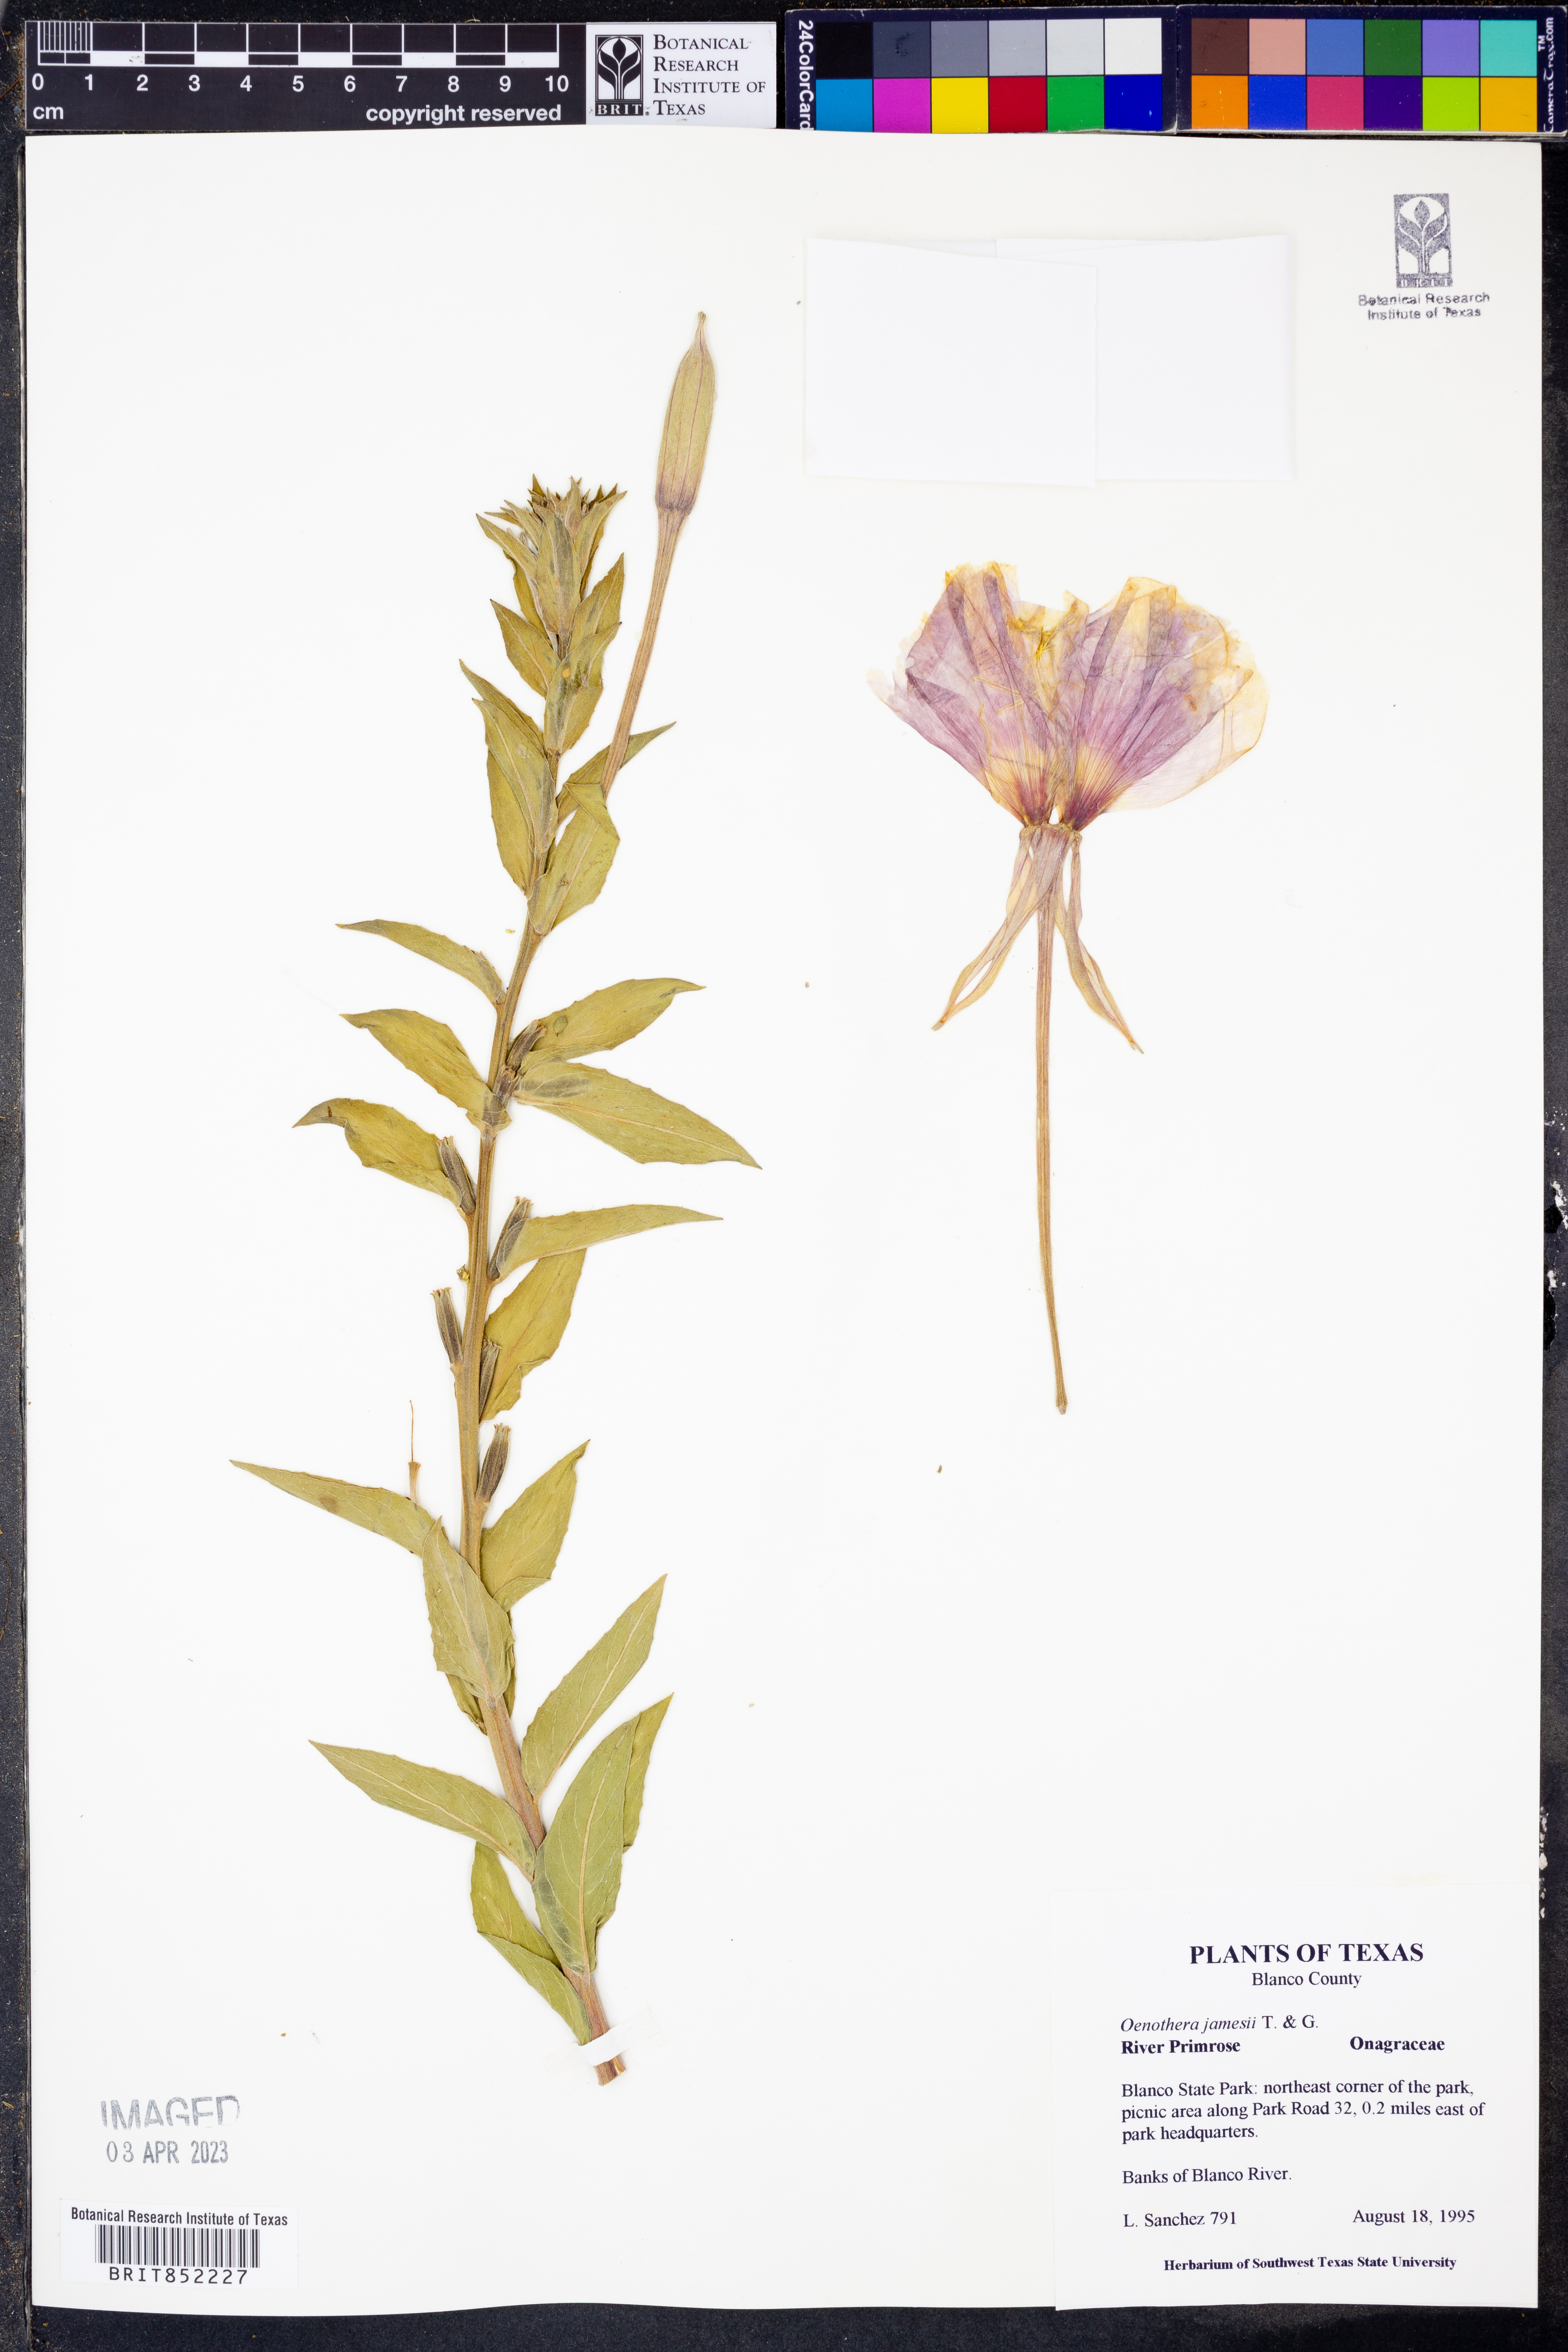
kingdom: Plantae
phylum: Tracheophyta
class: Magnoliopsida
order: Myrtales
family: Onagraceae
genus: Oenothera
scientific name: Oenothera jamesii
